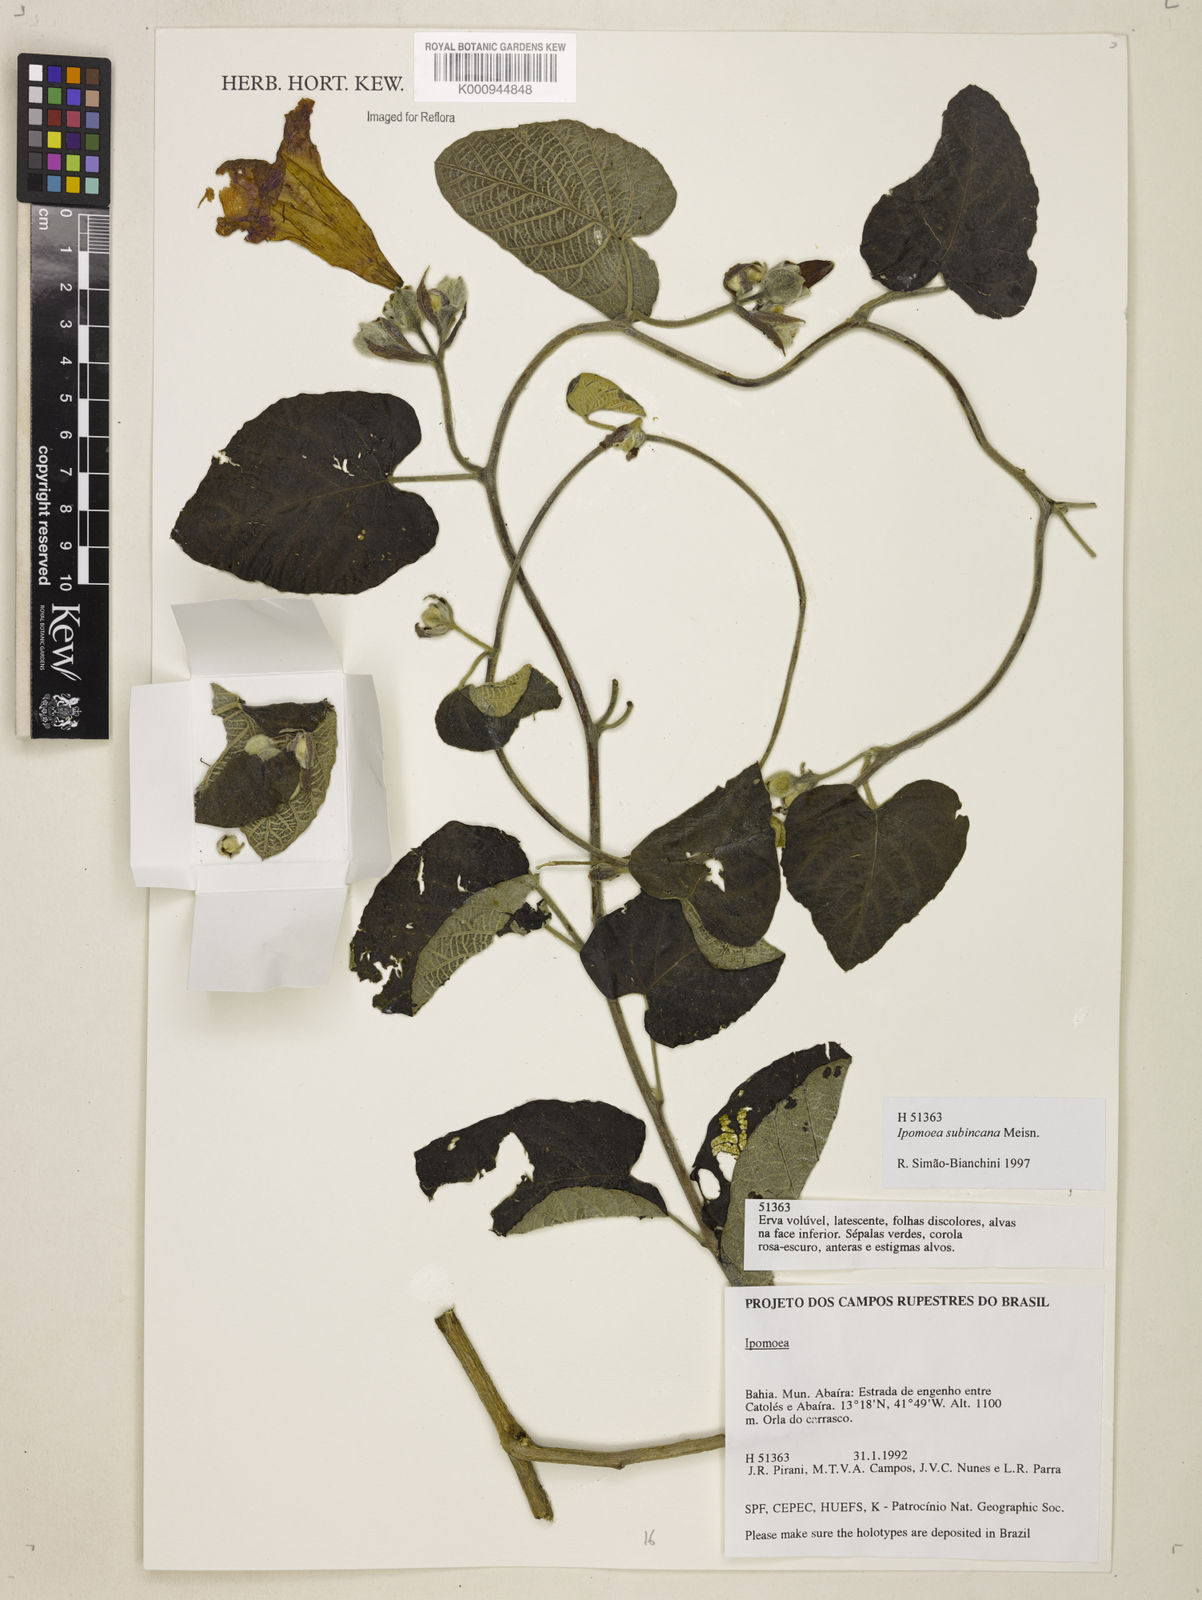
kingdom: Plantae
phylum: Tracheophyta
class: Magnoliopsida
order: Solanales
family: Convolvulaceae
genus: Ipomoea
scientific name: Ipomoea brasiliana
